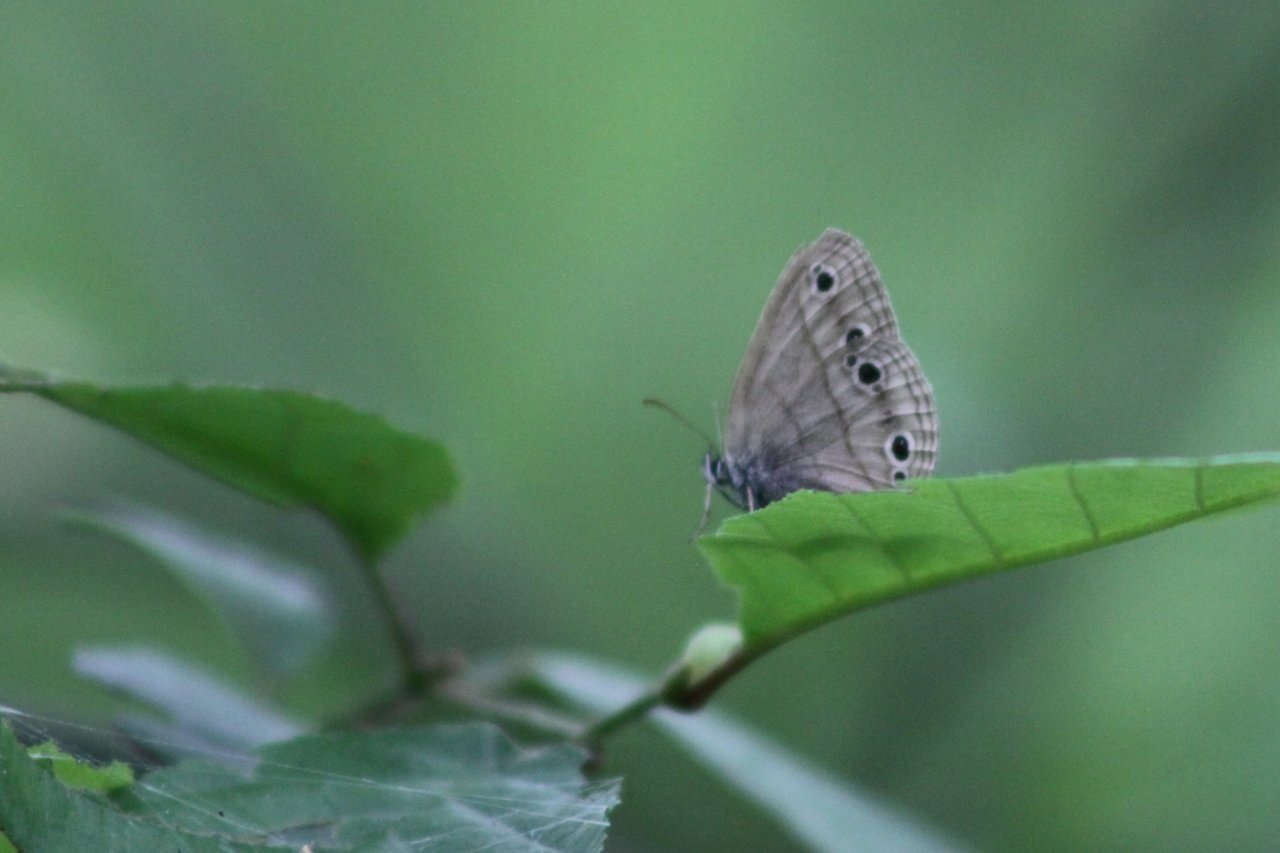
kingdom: Animalia
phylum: Arthropoda
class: Insecta
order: Lepidoptera
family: Nymphalidae
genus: Euptychia
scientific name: Euptychia cymela
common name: Little Wood Satyr
